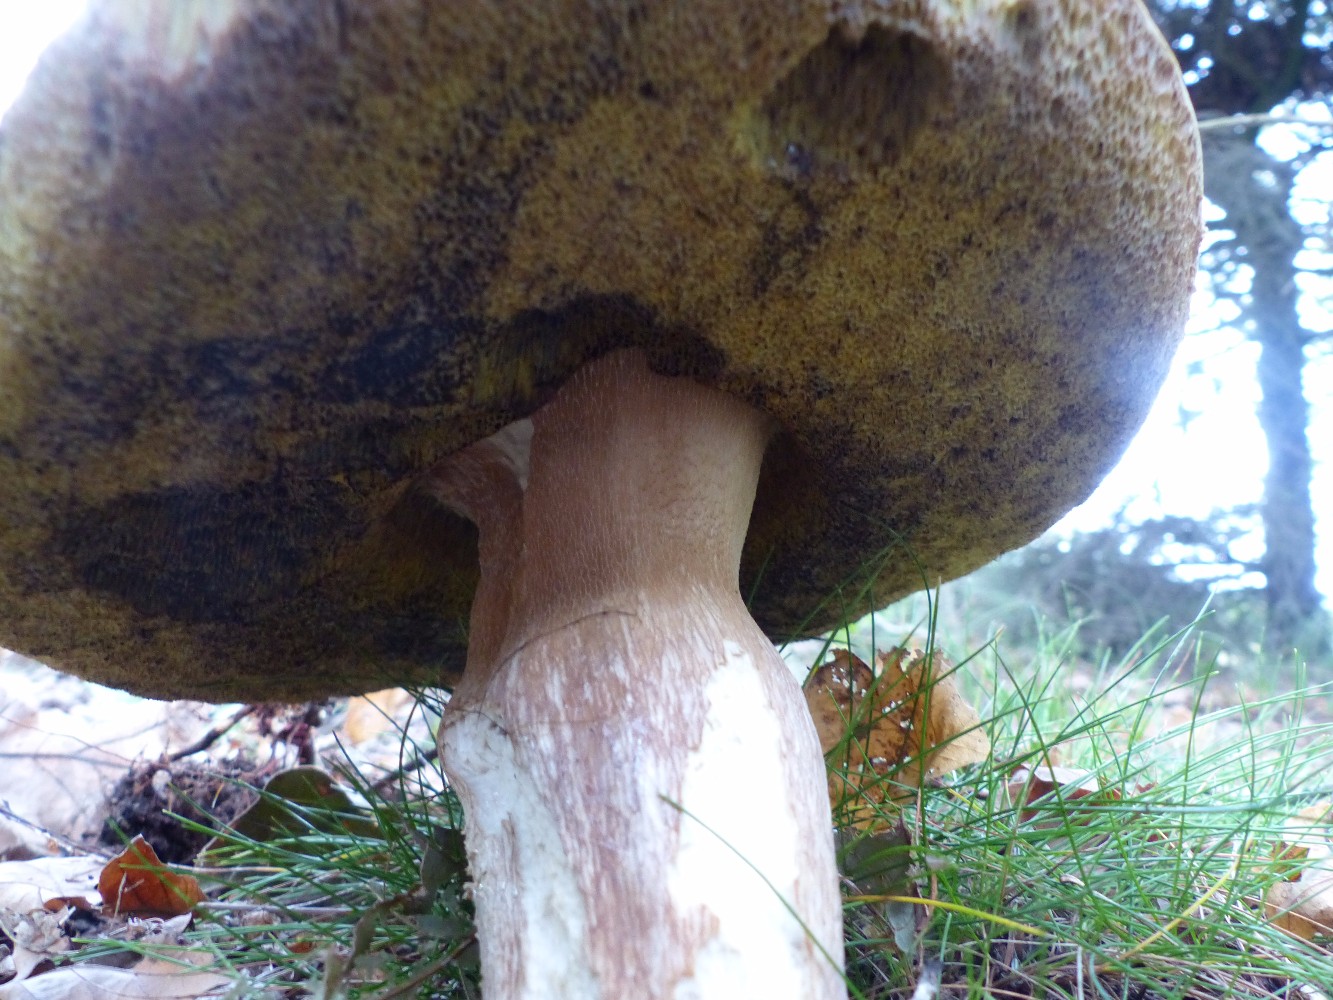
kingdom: Fungi
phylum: Basidiomycota
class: Agaricomycetes
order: Boletales
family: Boletaceae
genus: Boletus
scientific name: Boletus edulis
